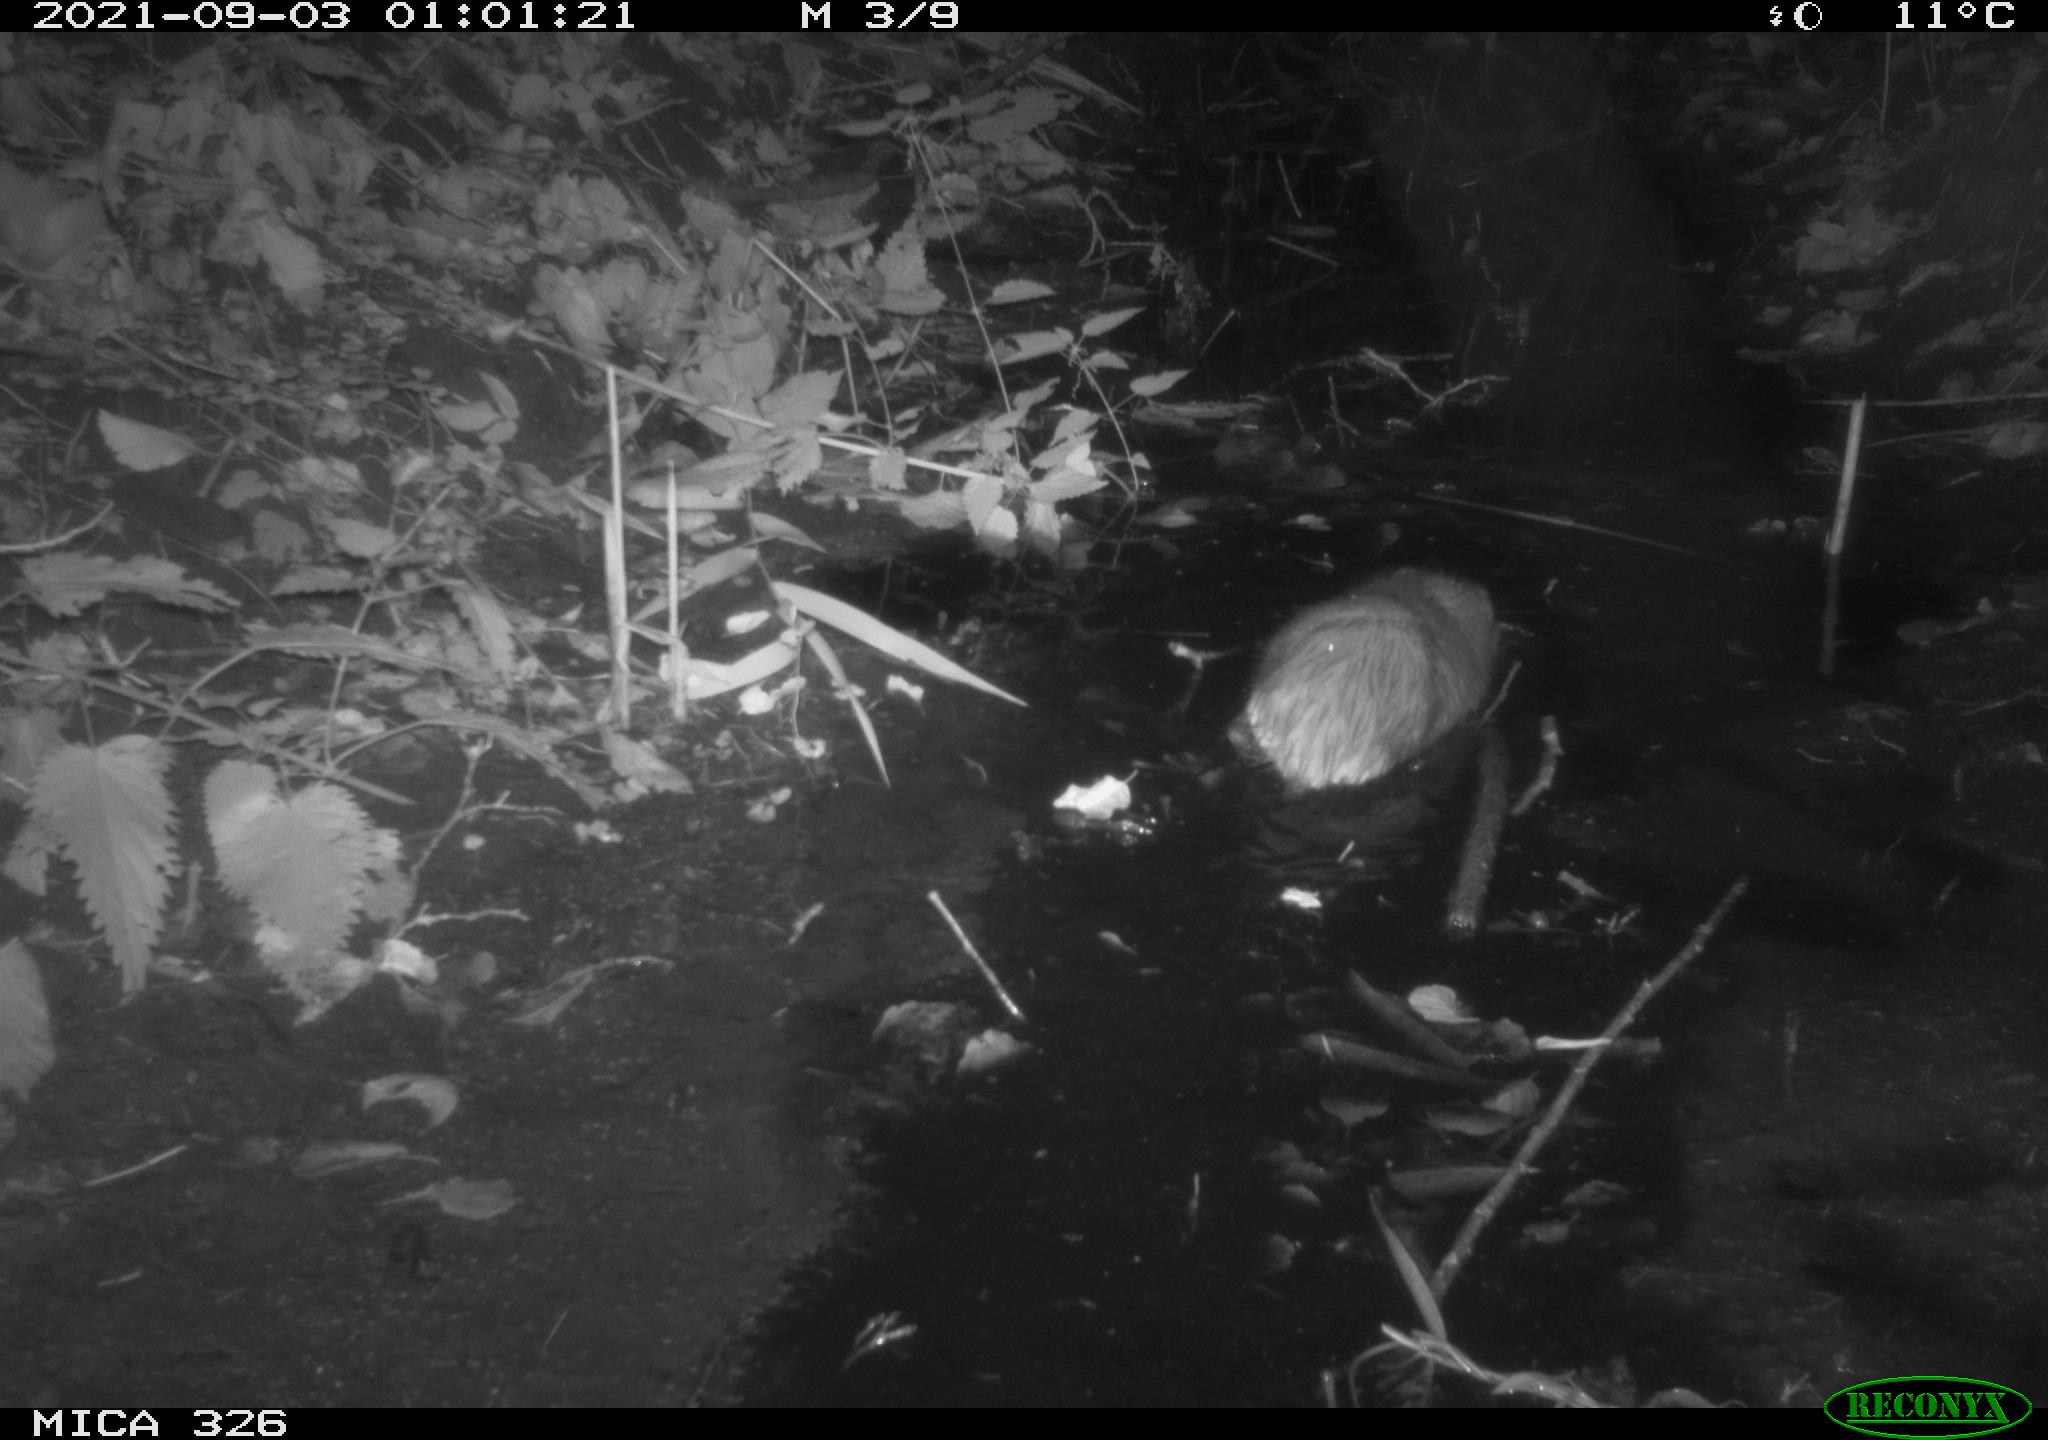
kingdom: Animalia
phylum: Chordata
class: Mammalia
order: Rodentia
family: Cricetidae
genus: Ondatra
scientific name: Ondatra zibethicus
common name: Muskrat
